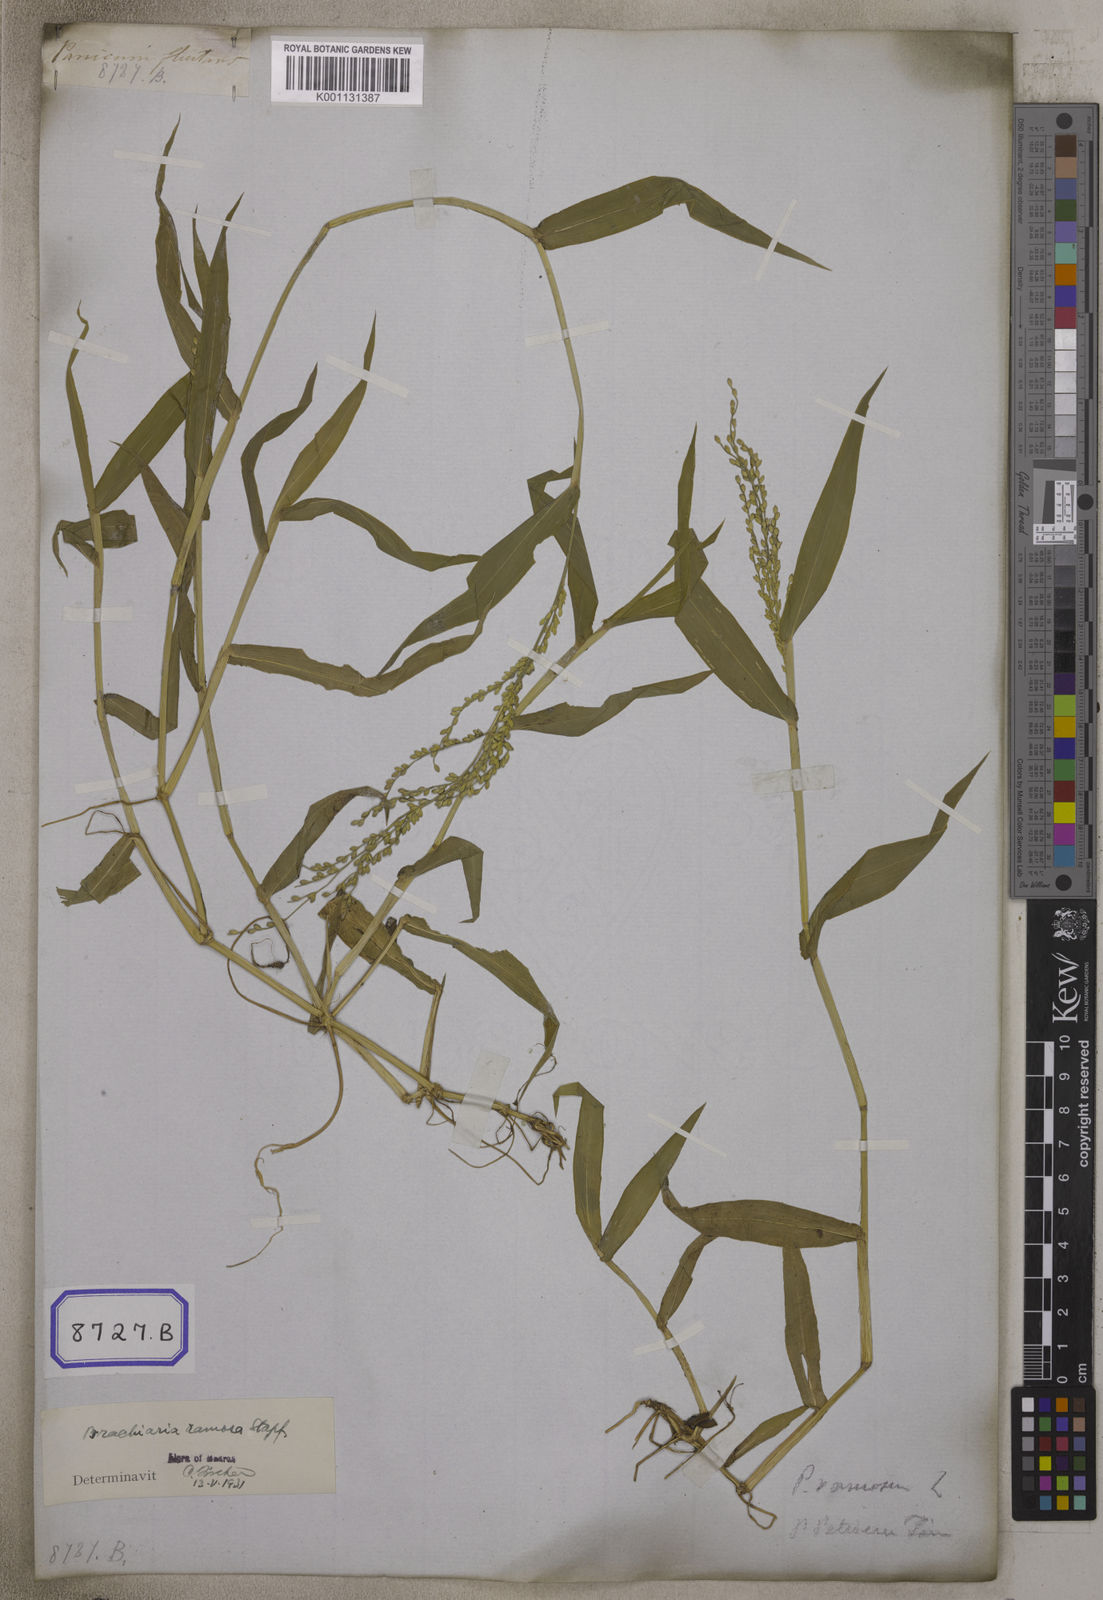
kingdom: Plantae
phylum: Tracheophyta
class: Liliopsida
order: Poales
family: Poaceae
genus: Panicum
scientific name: Panicum
